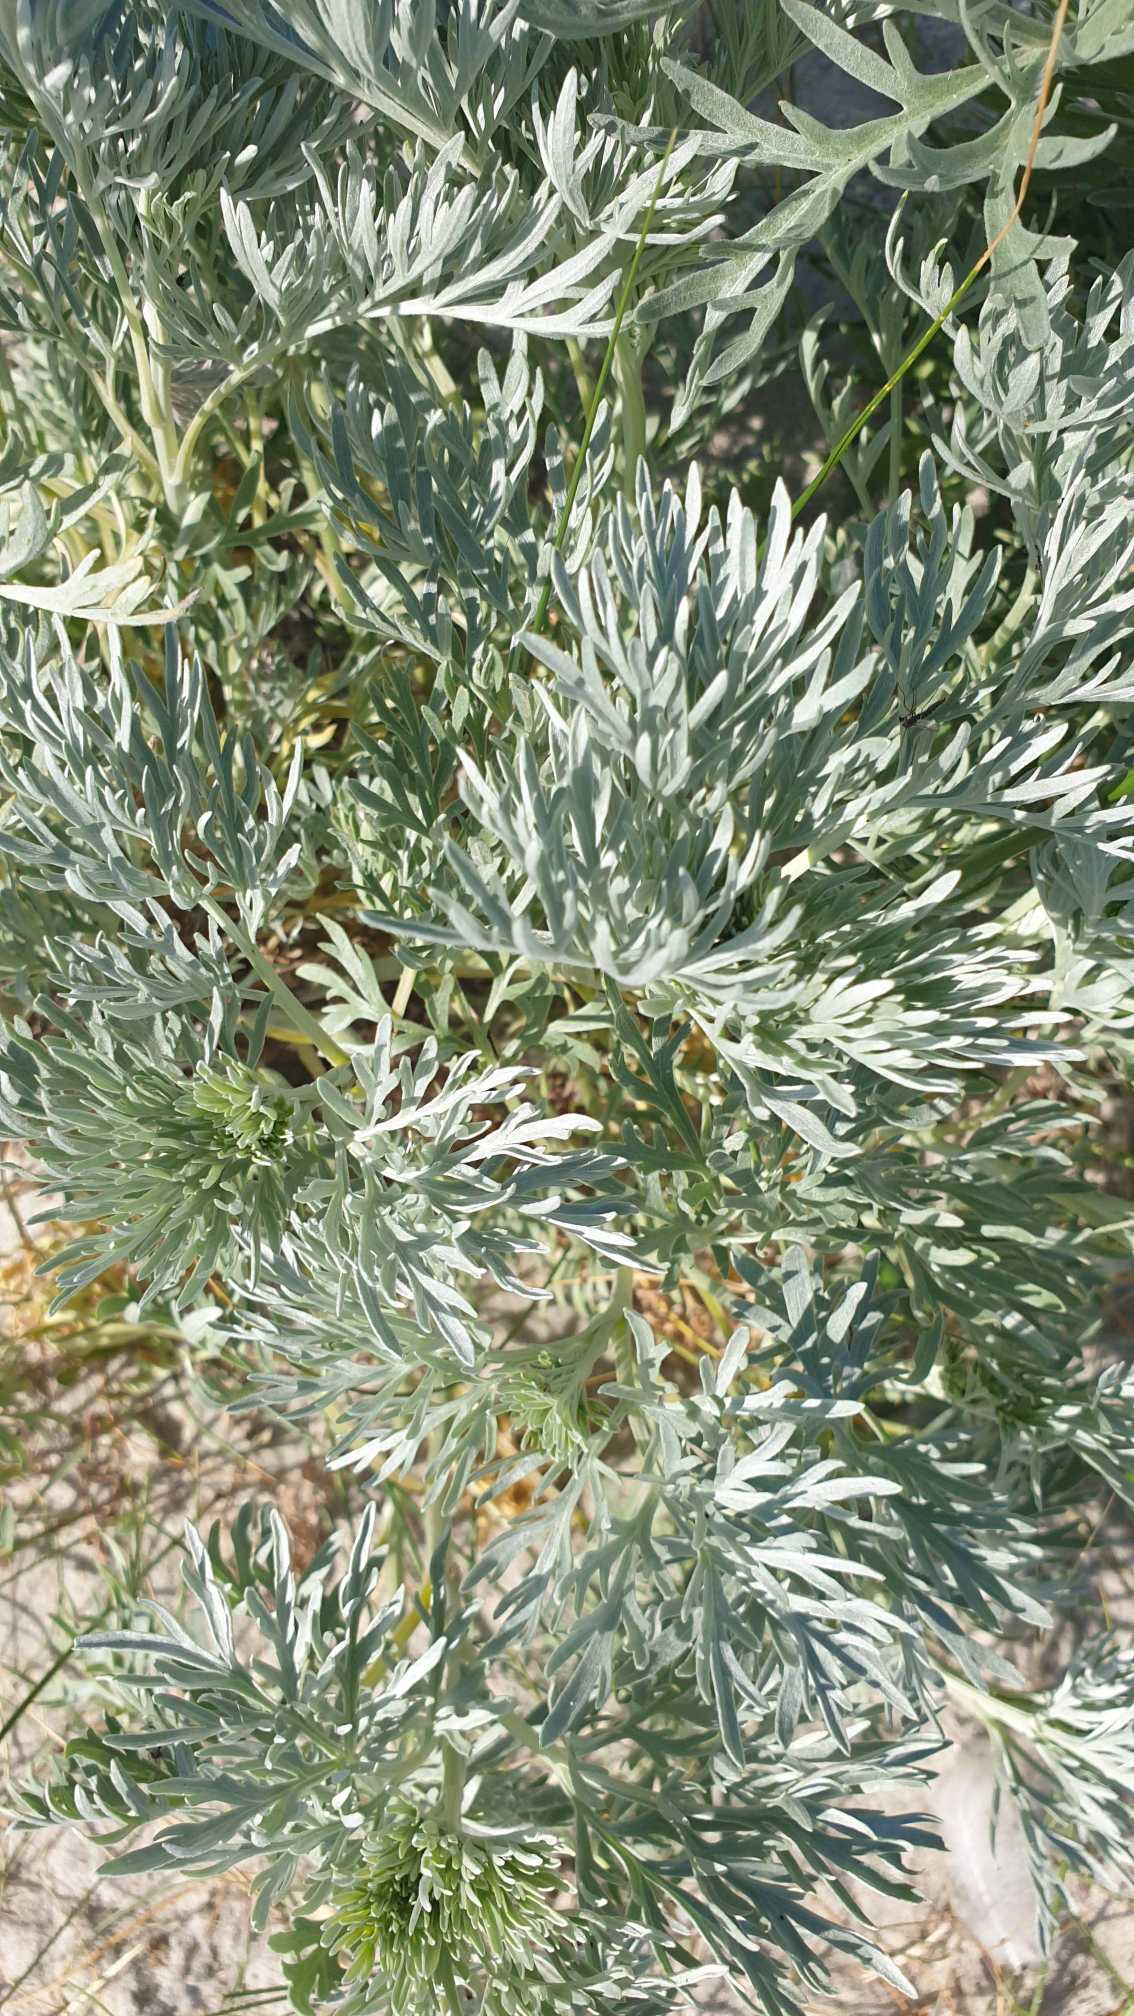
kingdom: Plantae
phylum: Tracheophyta
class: Magnoliopsida
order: Asterales
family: Asteraceae
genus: Artemisia
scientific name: Artemisia absinthium
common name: Havemalurt
